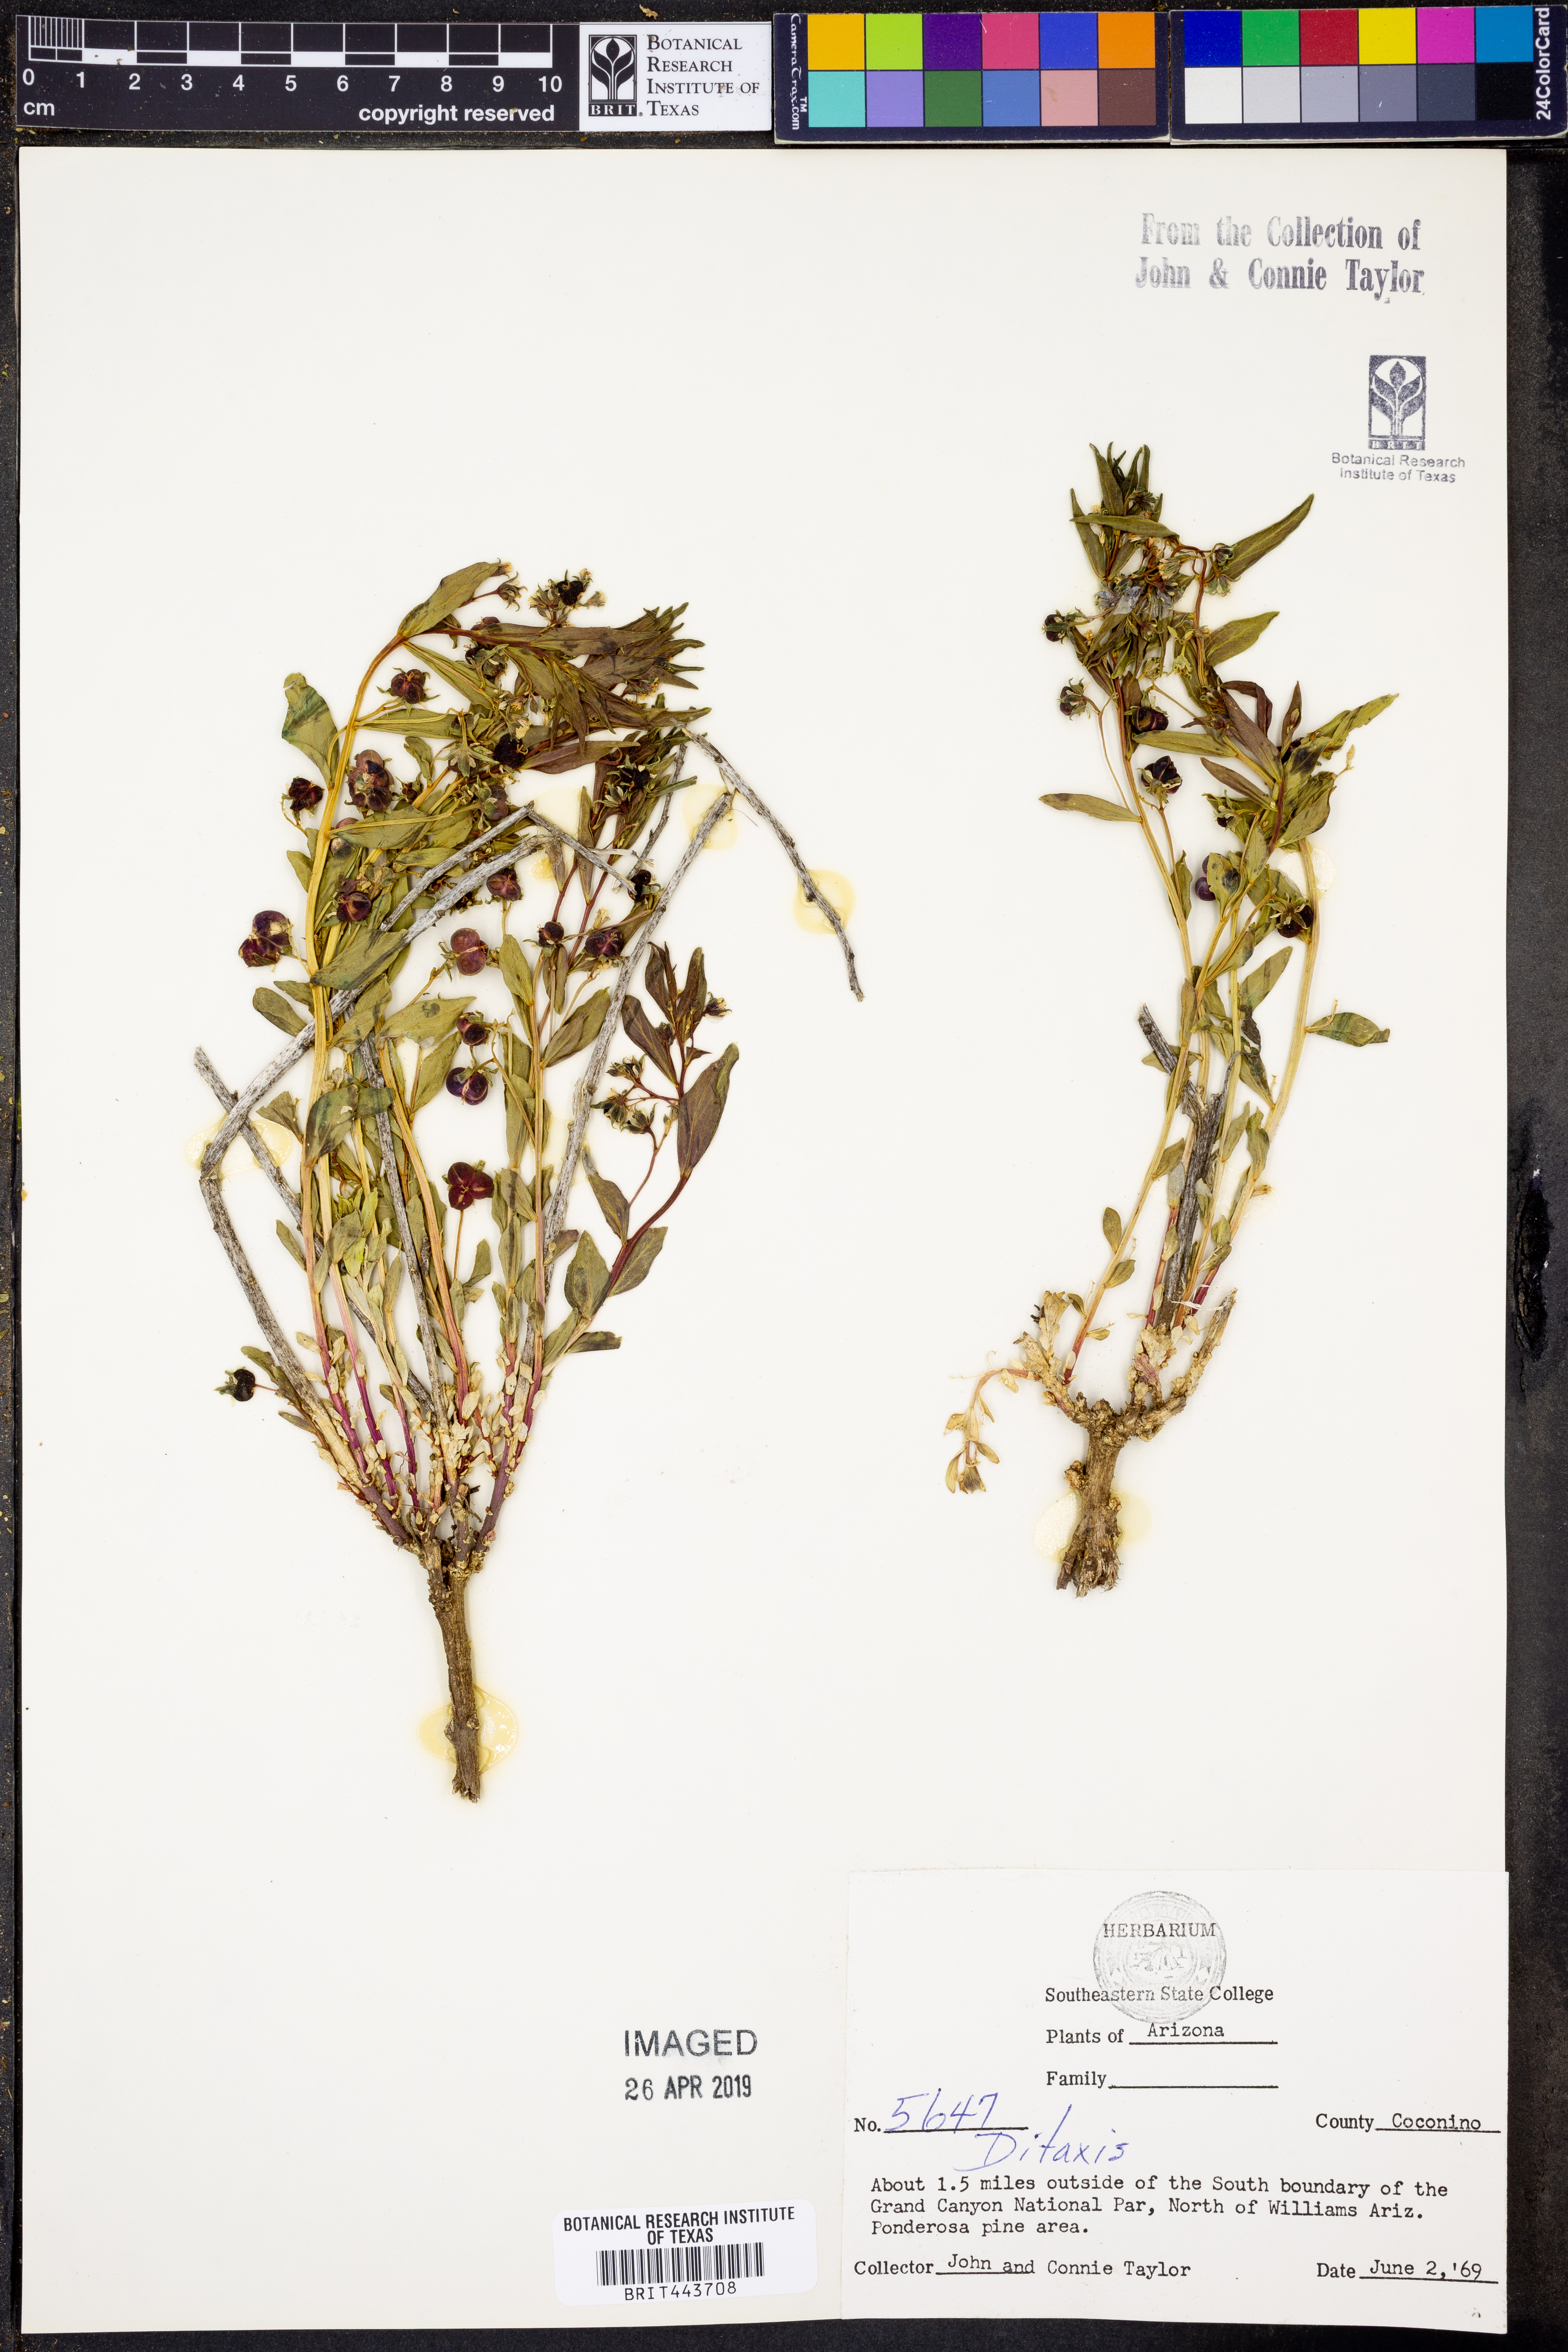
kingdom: Plantae
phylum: Tracheophyta
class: Magnoliopsida
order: Malpighiales
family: Euphorbiaceae
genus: Ditaxis
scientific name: Ditaxis
